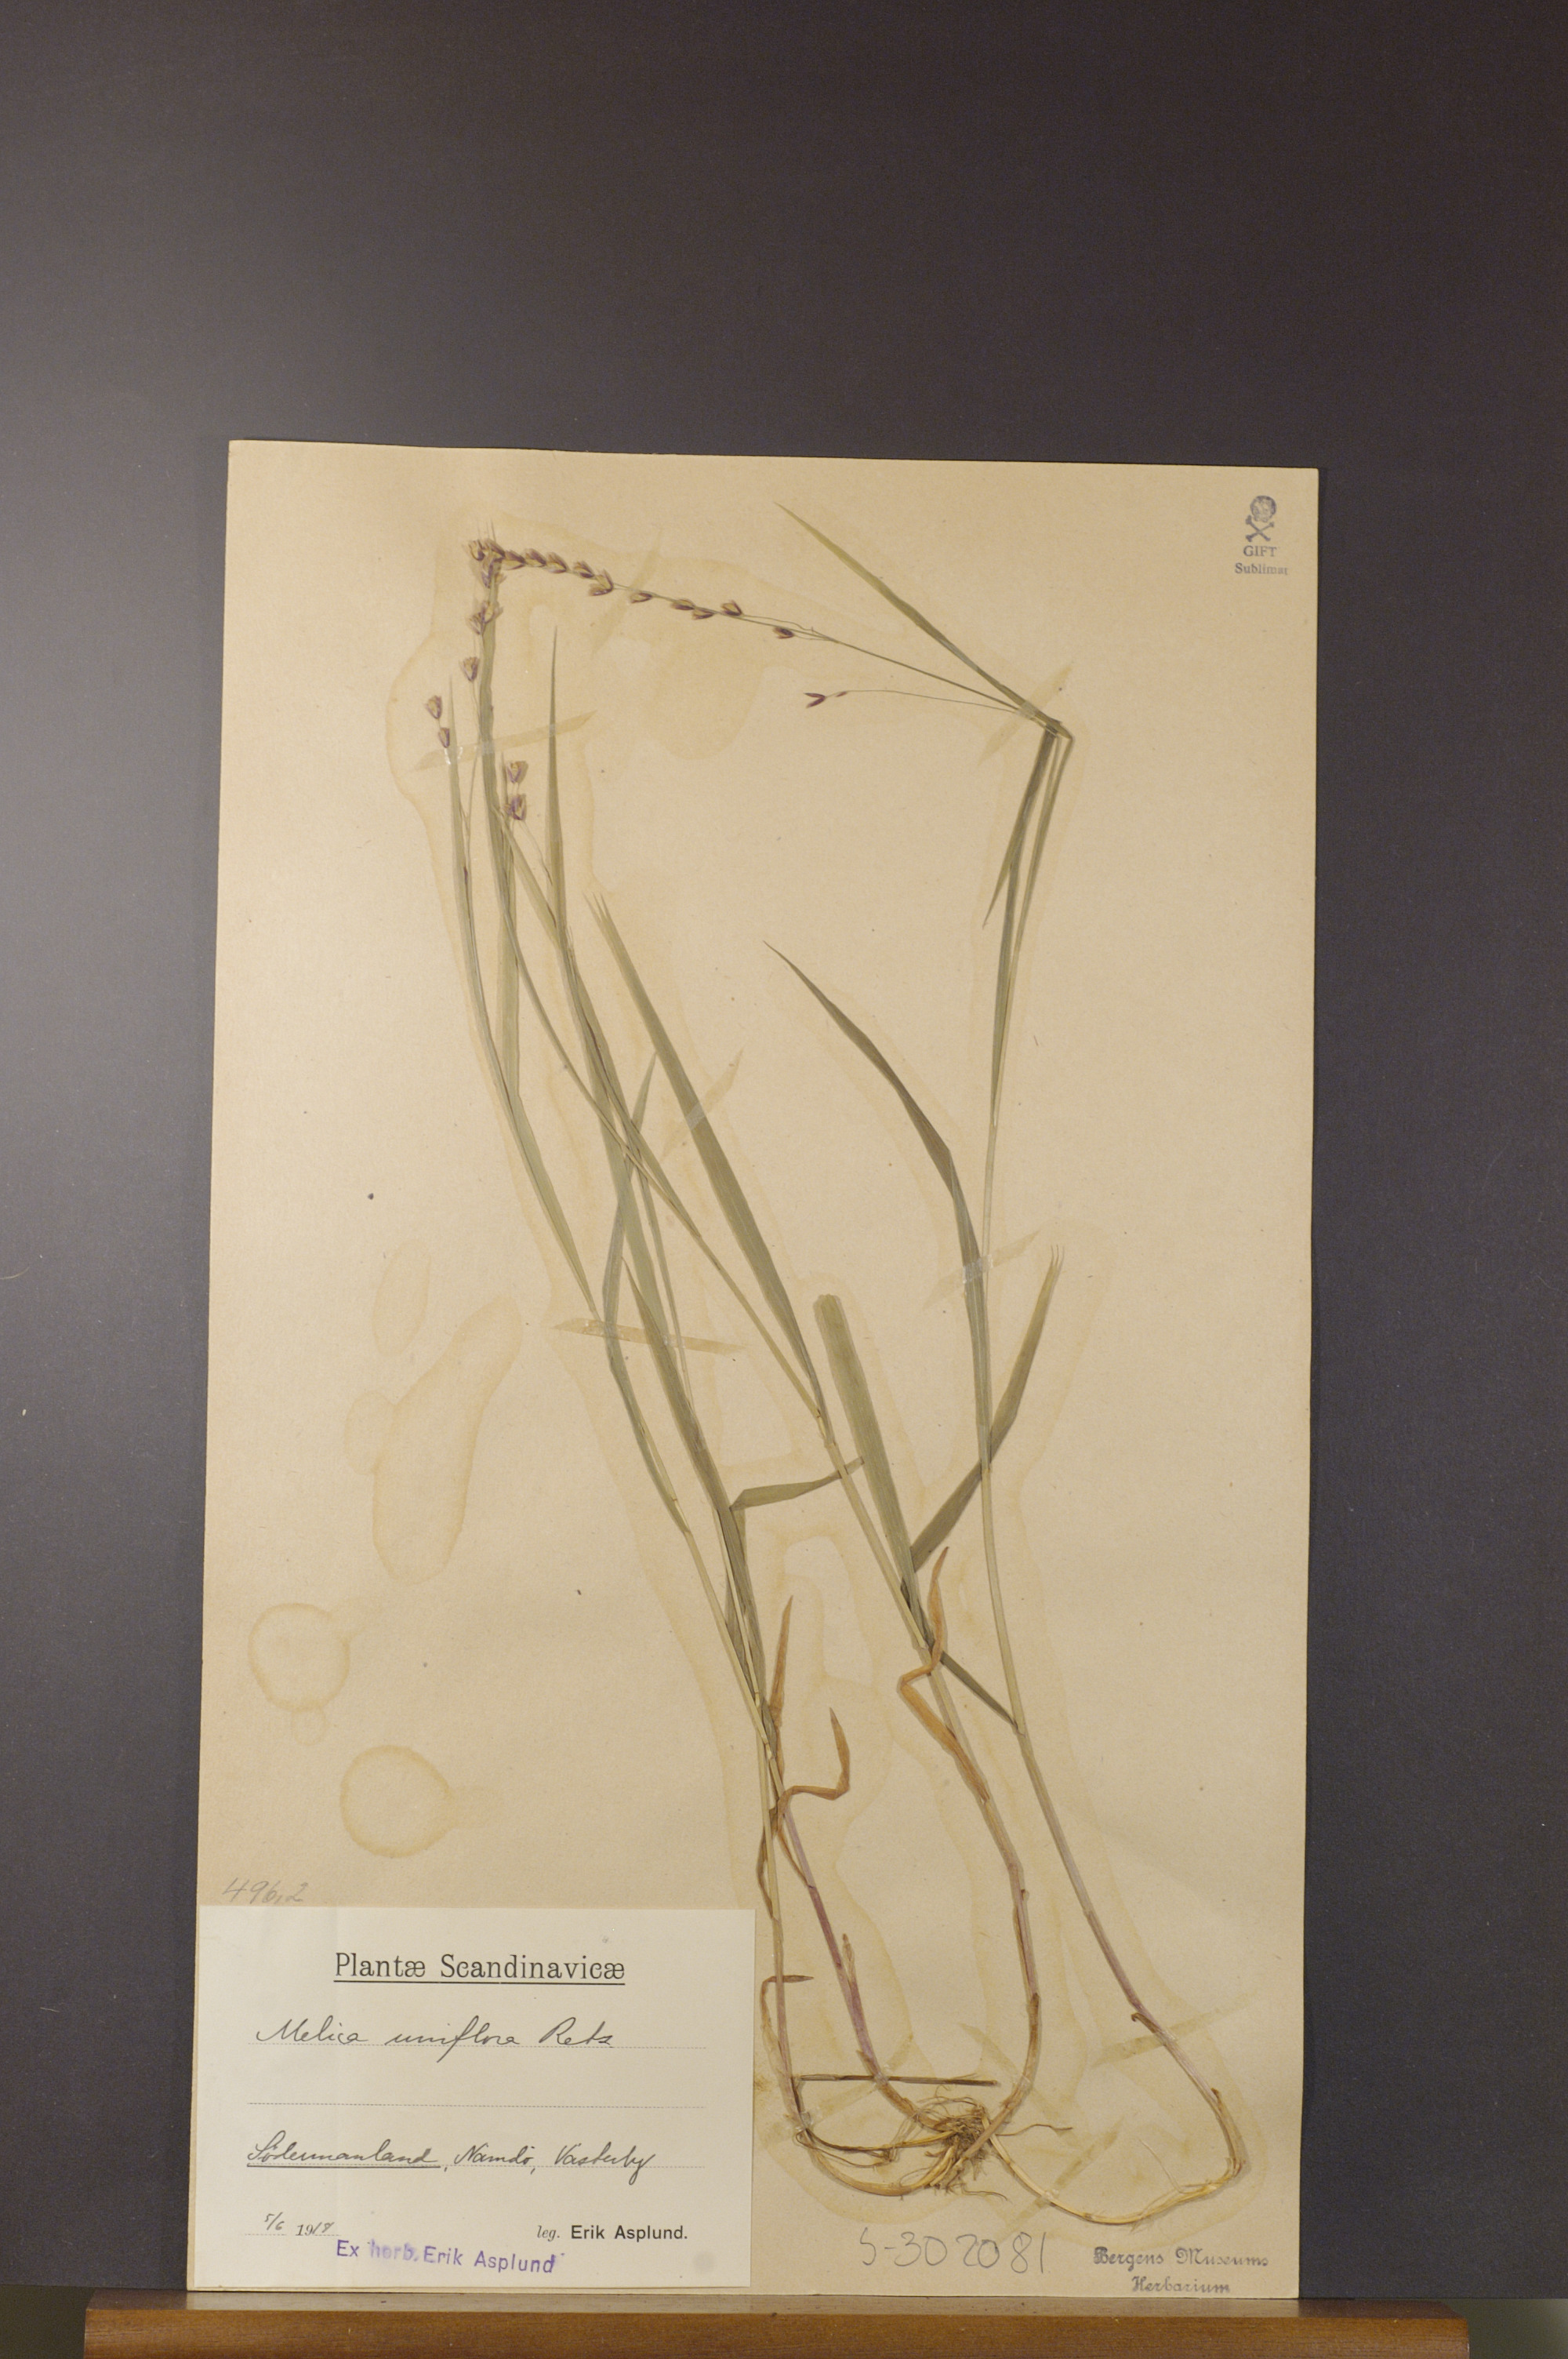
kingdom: Plantae
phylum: Tracheophyta
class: Liliopsida
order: Poales
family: Poaceae
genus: Melica
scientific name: Melica uniflora
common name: Wood melick
